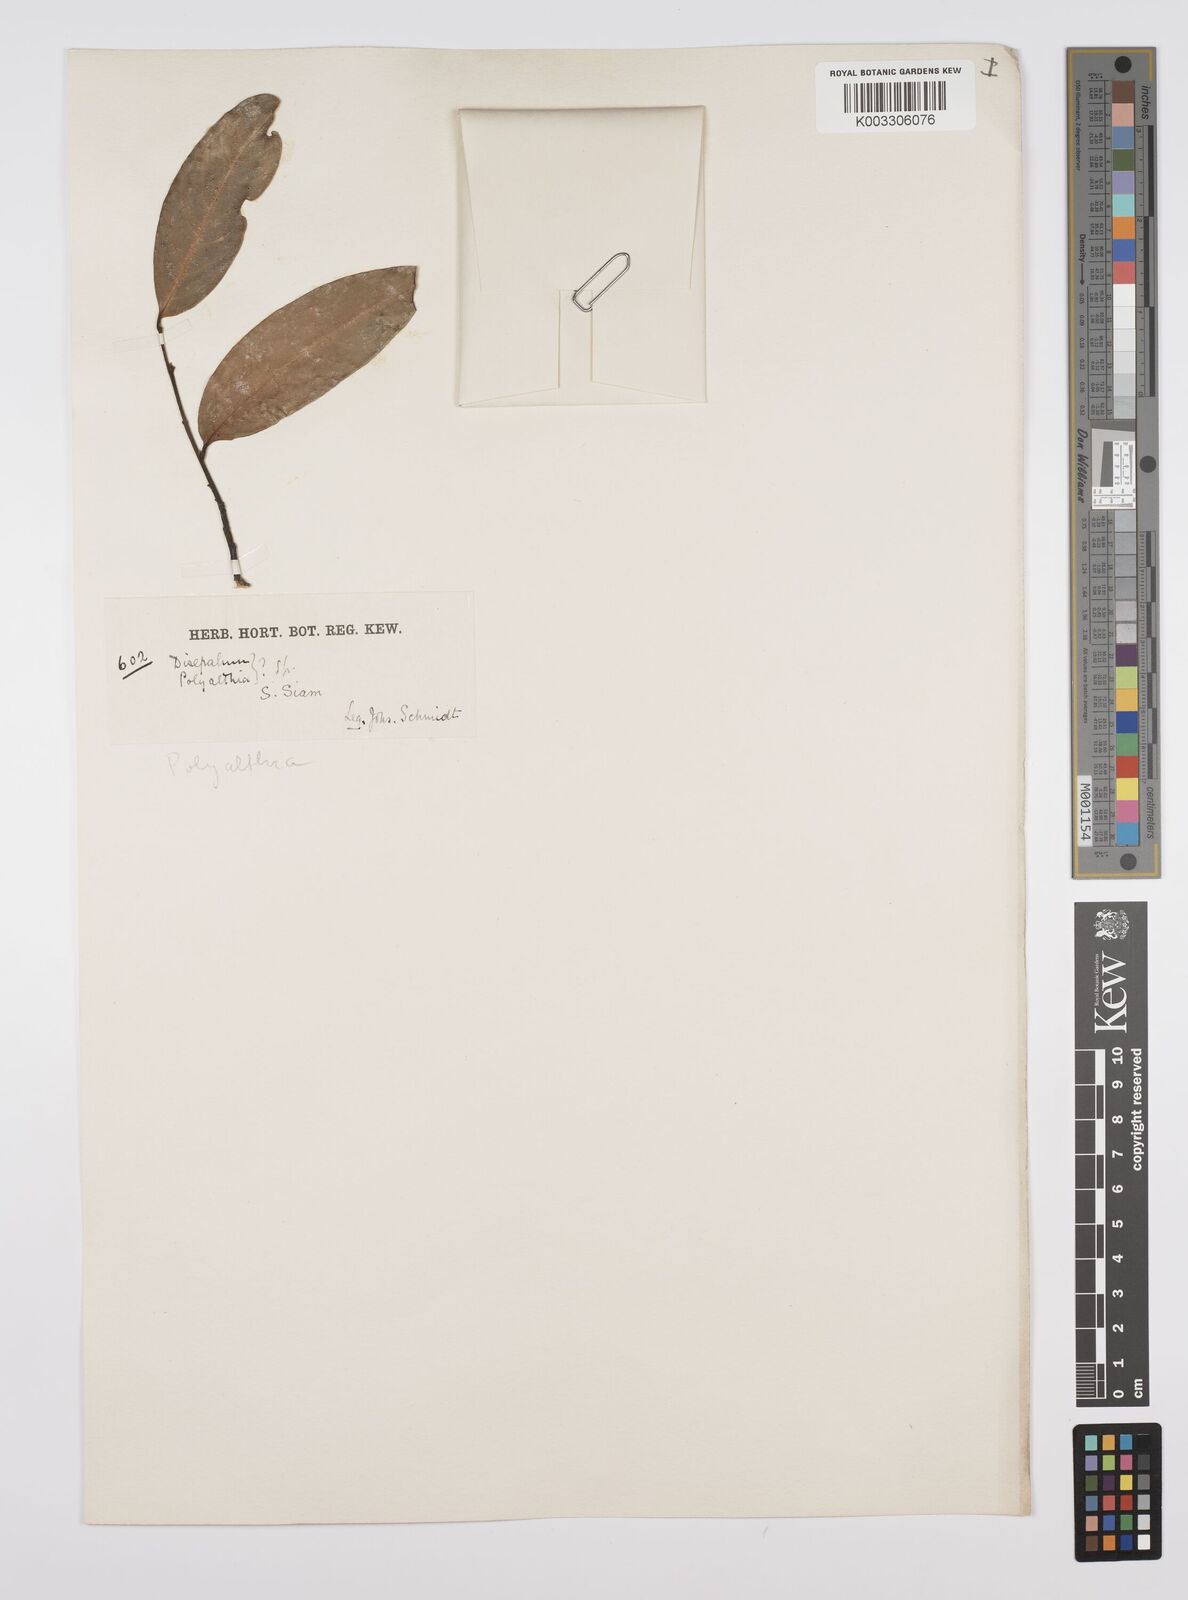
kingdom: Plantae
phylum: Tracheophyta
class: Magnoliopsida
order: Magnoliales
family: Annonaceae
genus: Huberantha
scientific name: Huberantha
